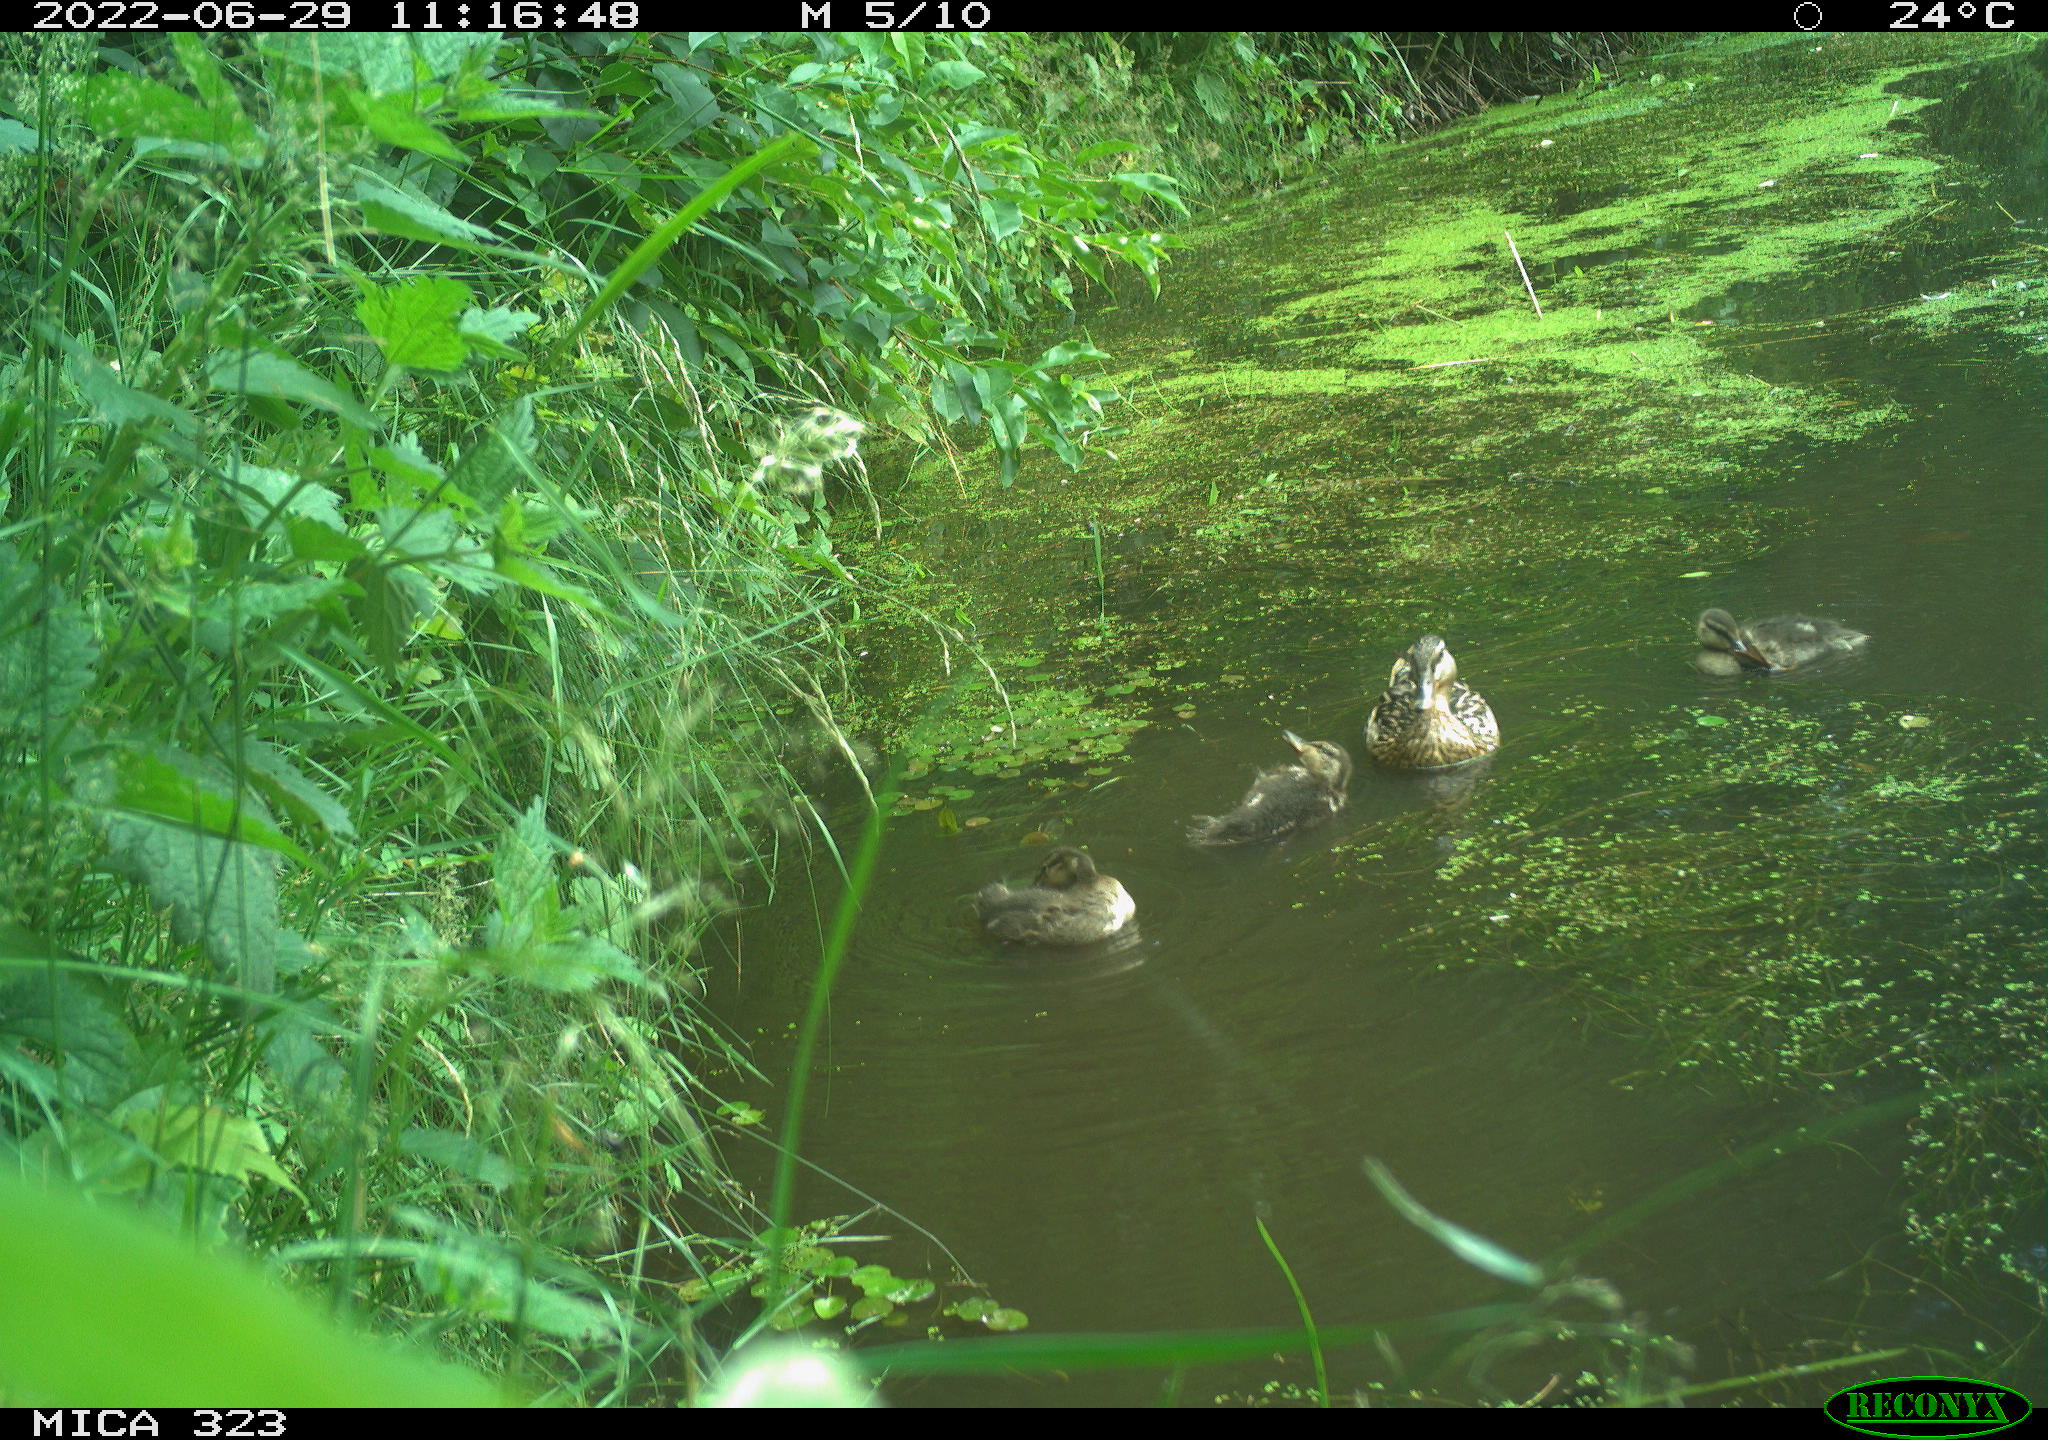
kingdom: Animalia
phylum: Chordata
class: Aves
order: Anseriformes
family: Anatidae
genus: Anas
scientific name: Anas platyrhynchos
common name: Mallard
